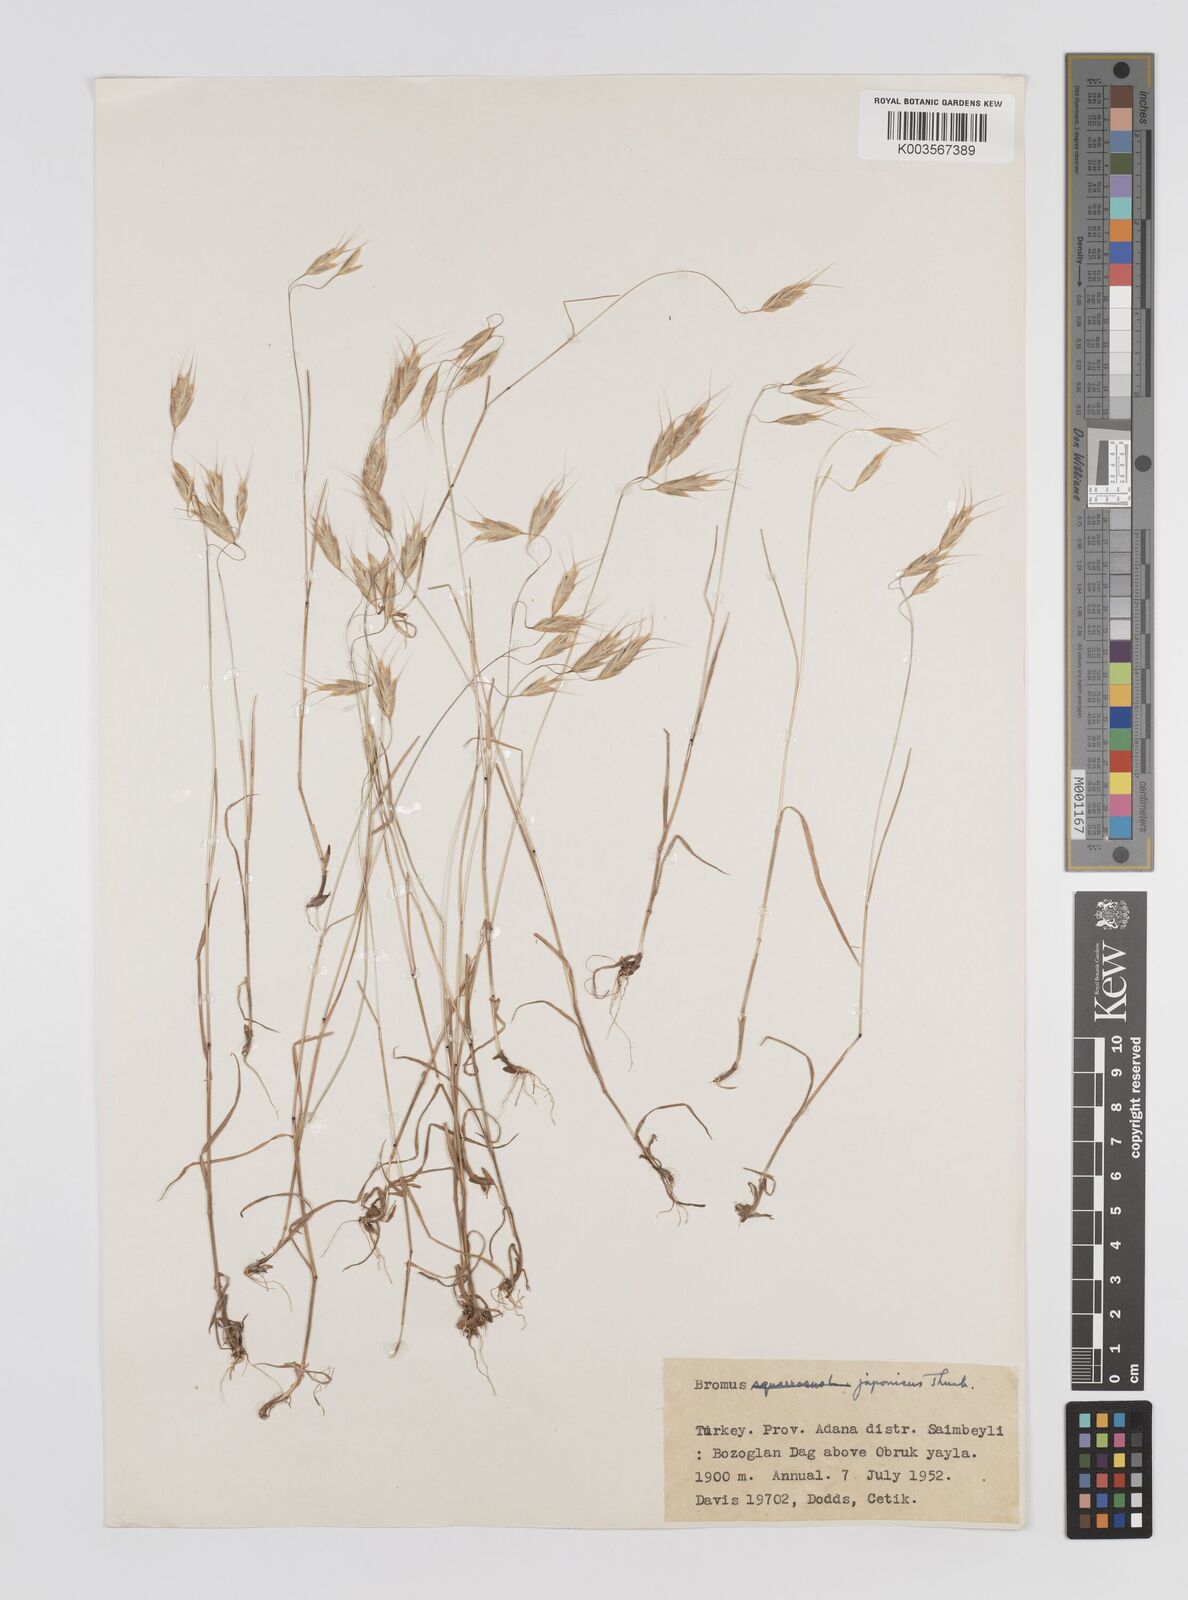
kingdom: Plantae
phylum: Tracheophyta
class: Liliopsida
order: Poales
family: Poaceae
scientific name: Poaceae
